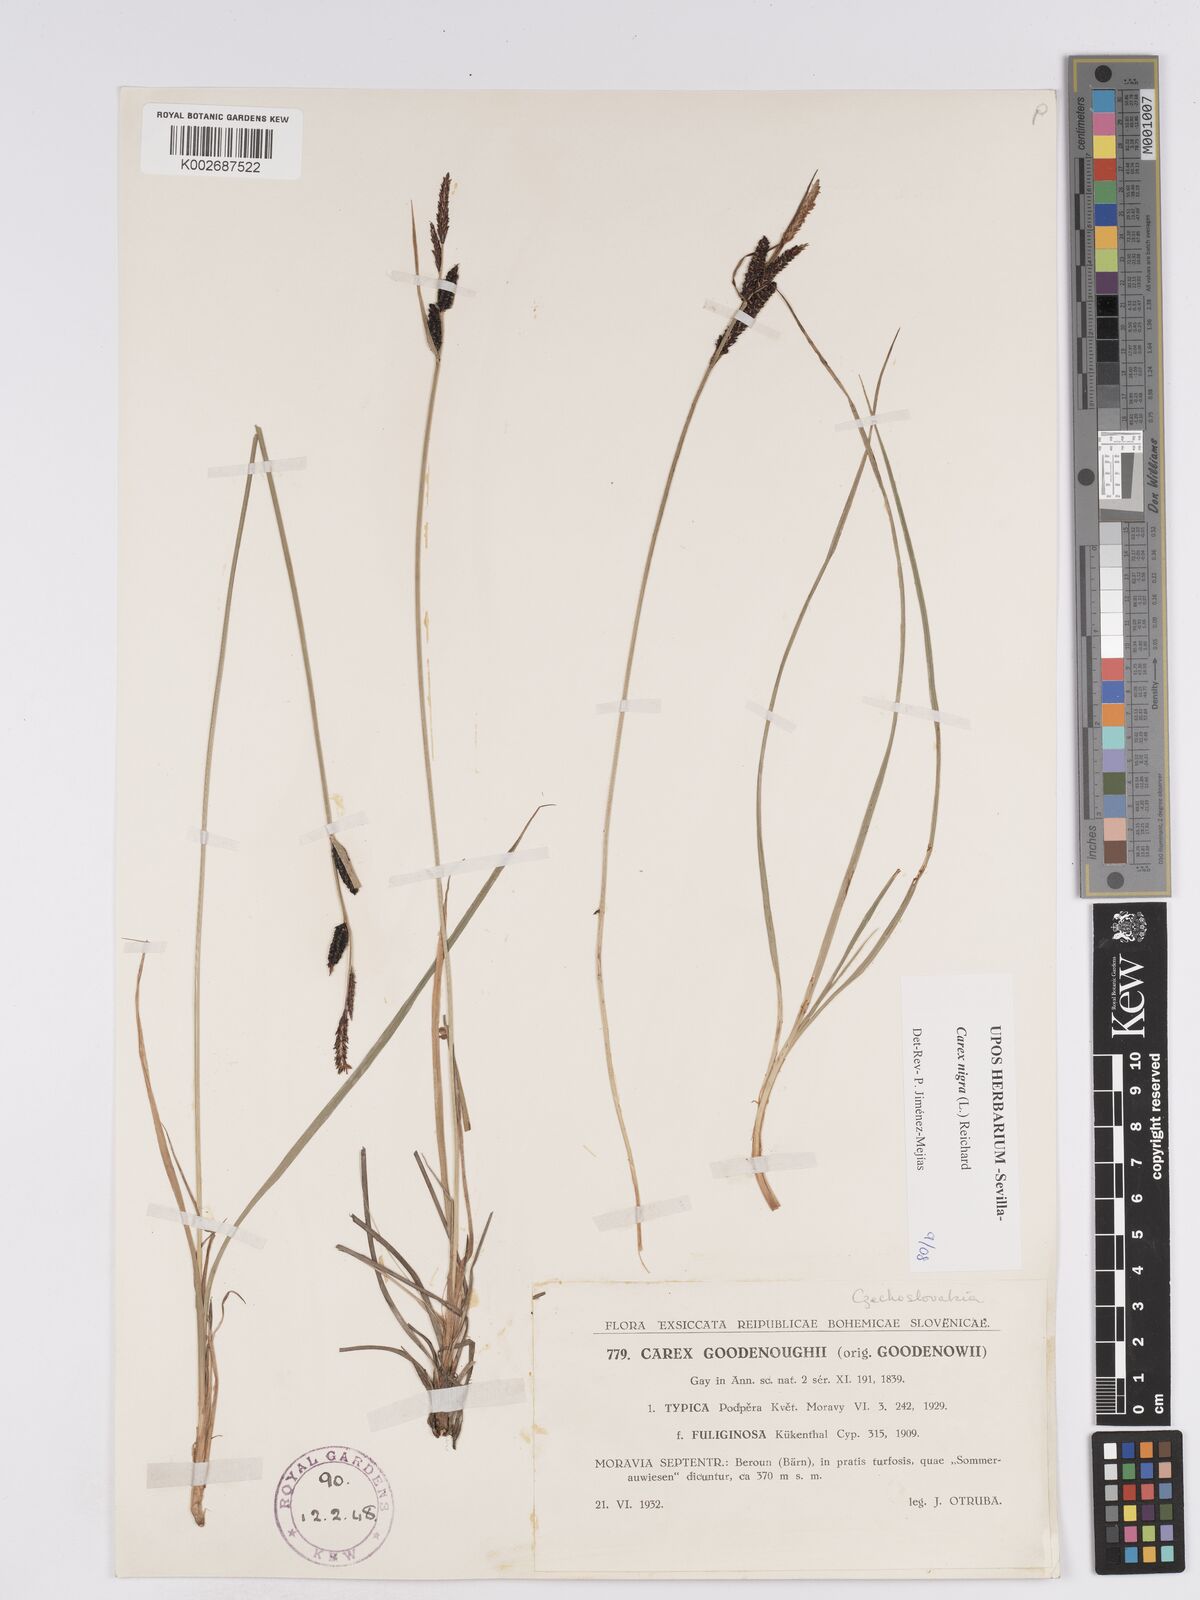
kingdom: Plantae
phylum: Tracheophyta
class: Liliopsida
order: Poales
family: Cyperaceae
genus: Carex
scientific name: Carex nigra
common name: Common sedge
